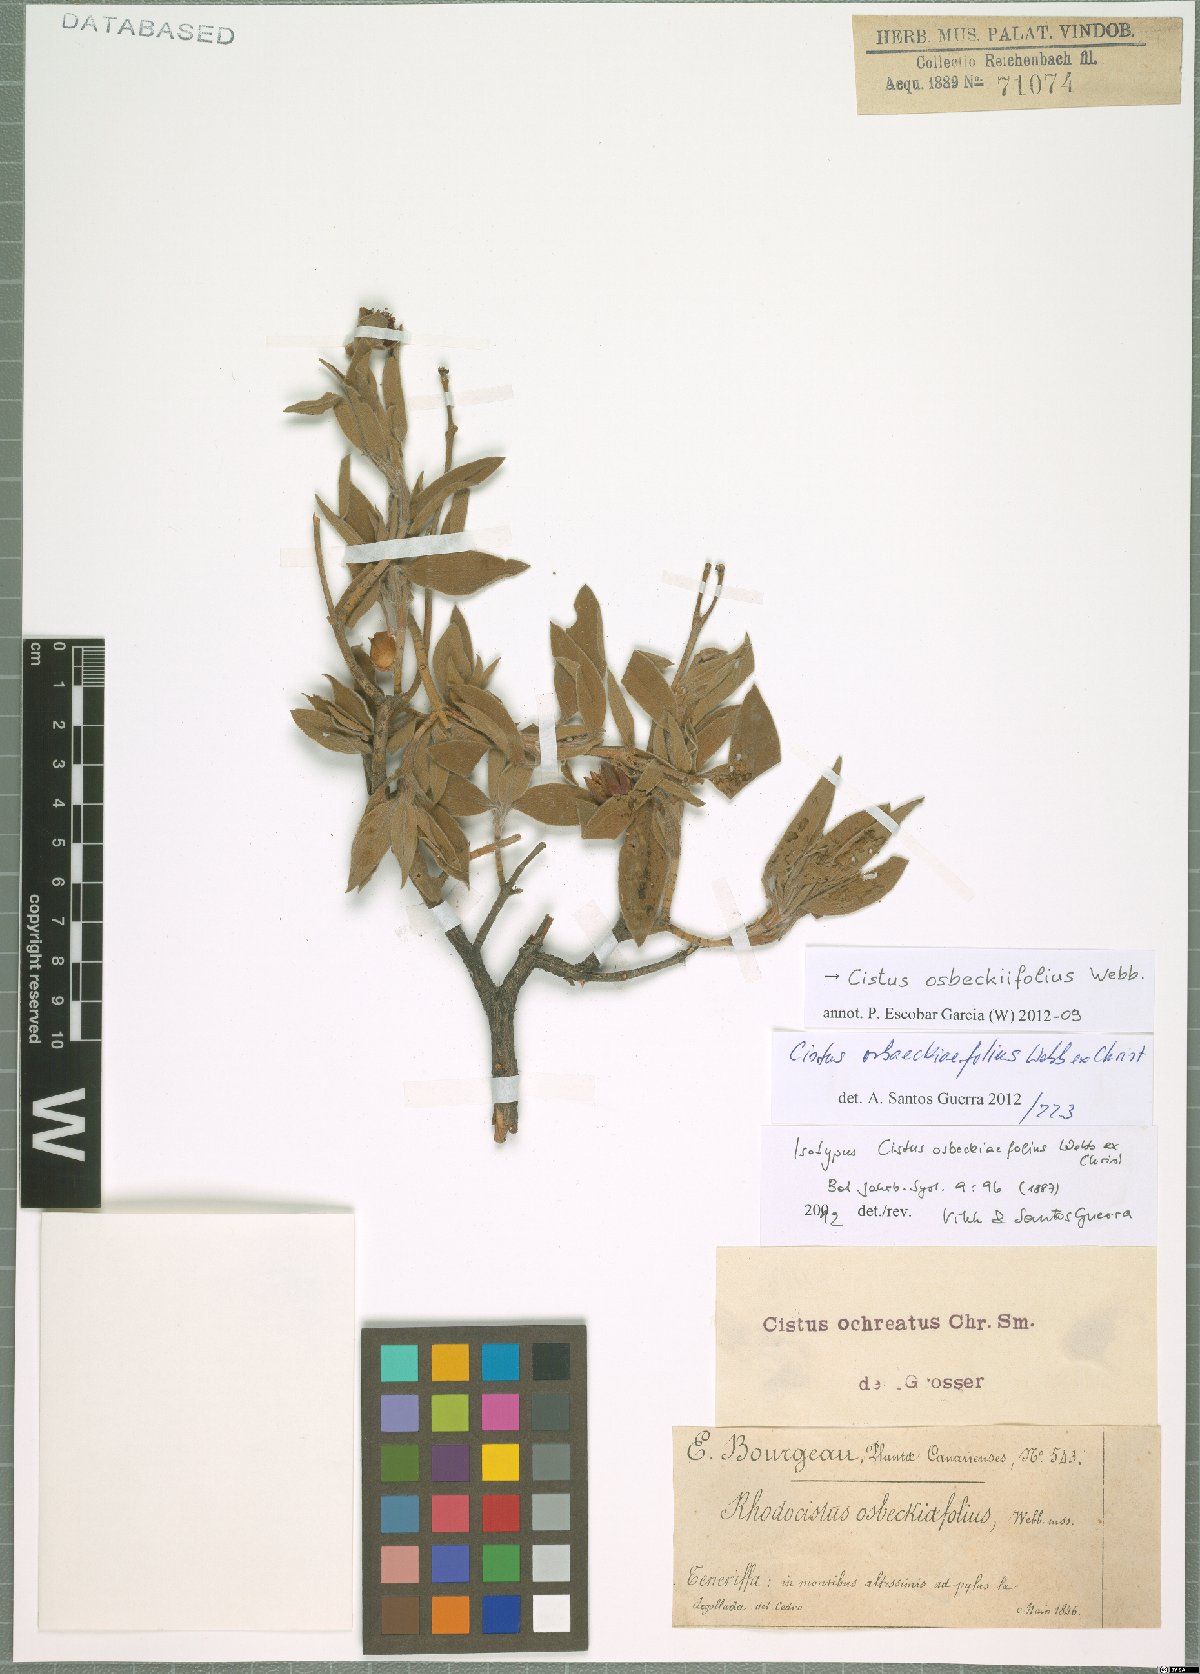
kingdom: Plantae
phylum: Tracheophyta
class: Magnoliopsida
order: Malvales
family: Cistaceae
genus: Cistus
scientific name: Cistus osbeckiifolius
